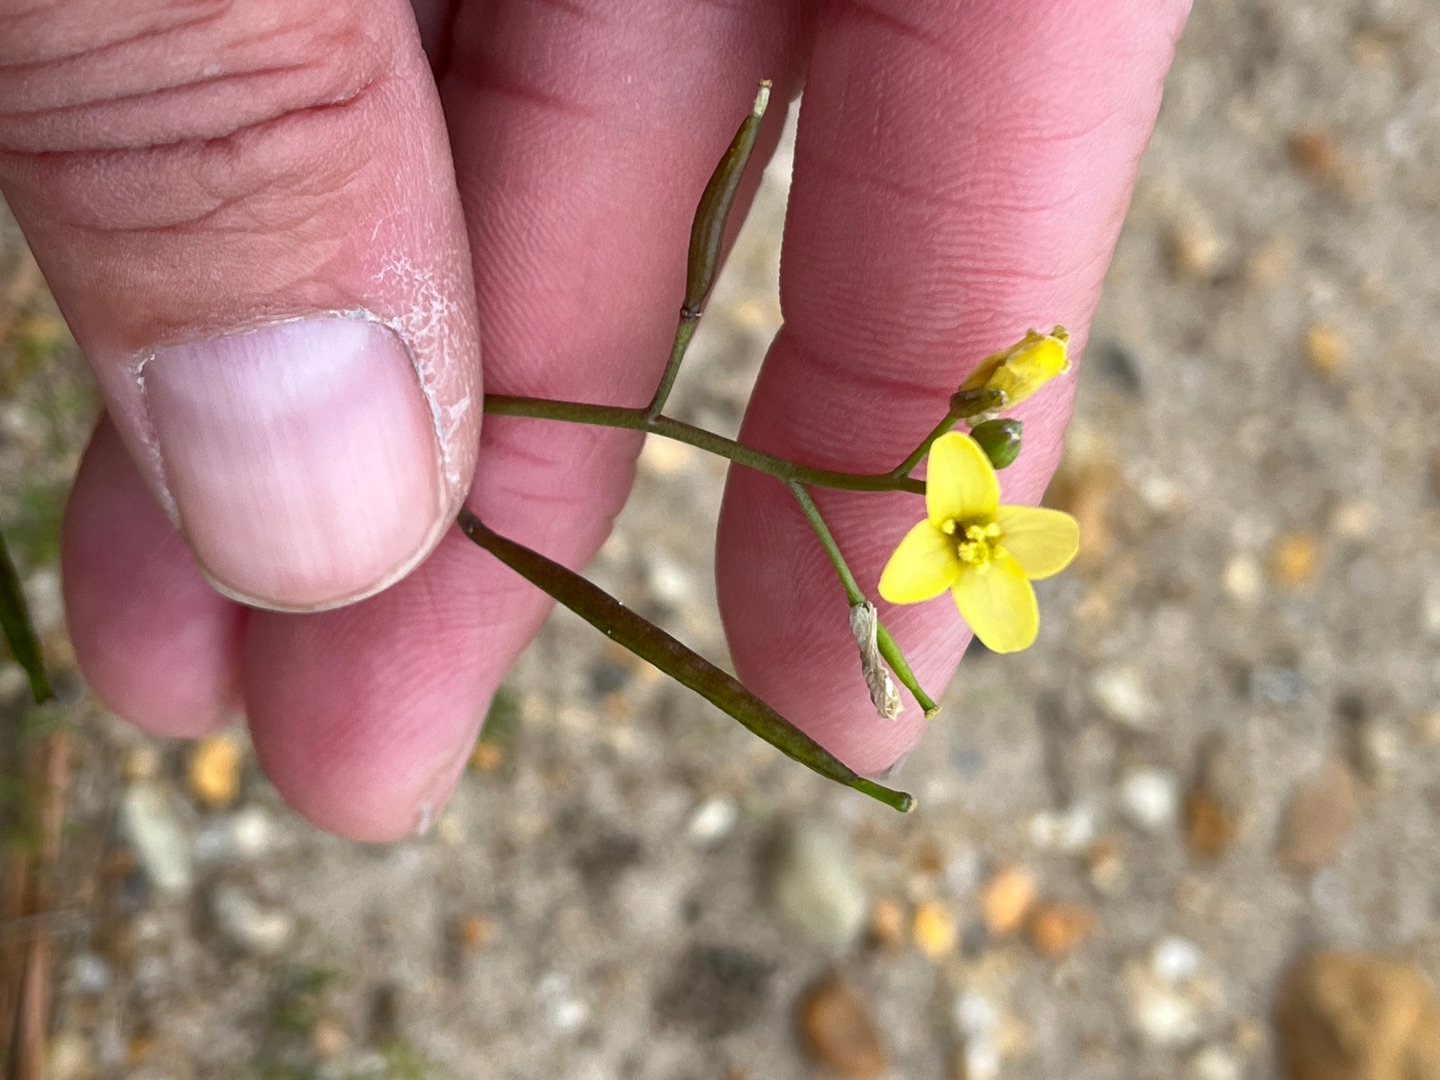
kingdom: Plantae
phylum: Tracheophyta
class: Magnoliopsida
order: Brassicales
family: Brassicaceae
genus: Diplotaxis
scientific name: Diplotaxis muralis
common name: Mursennep
